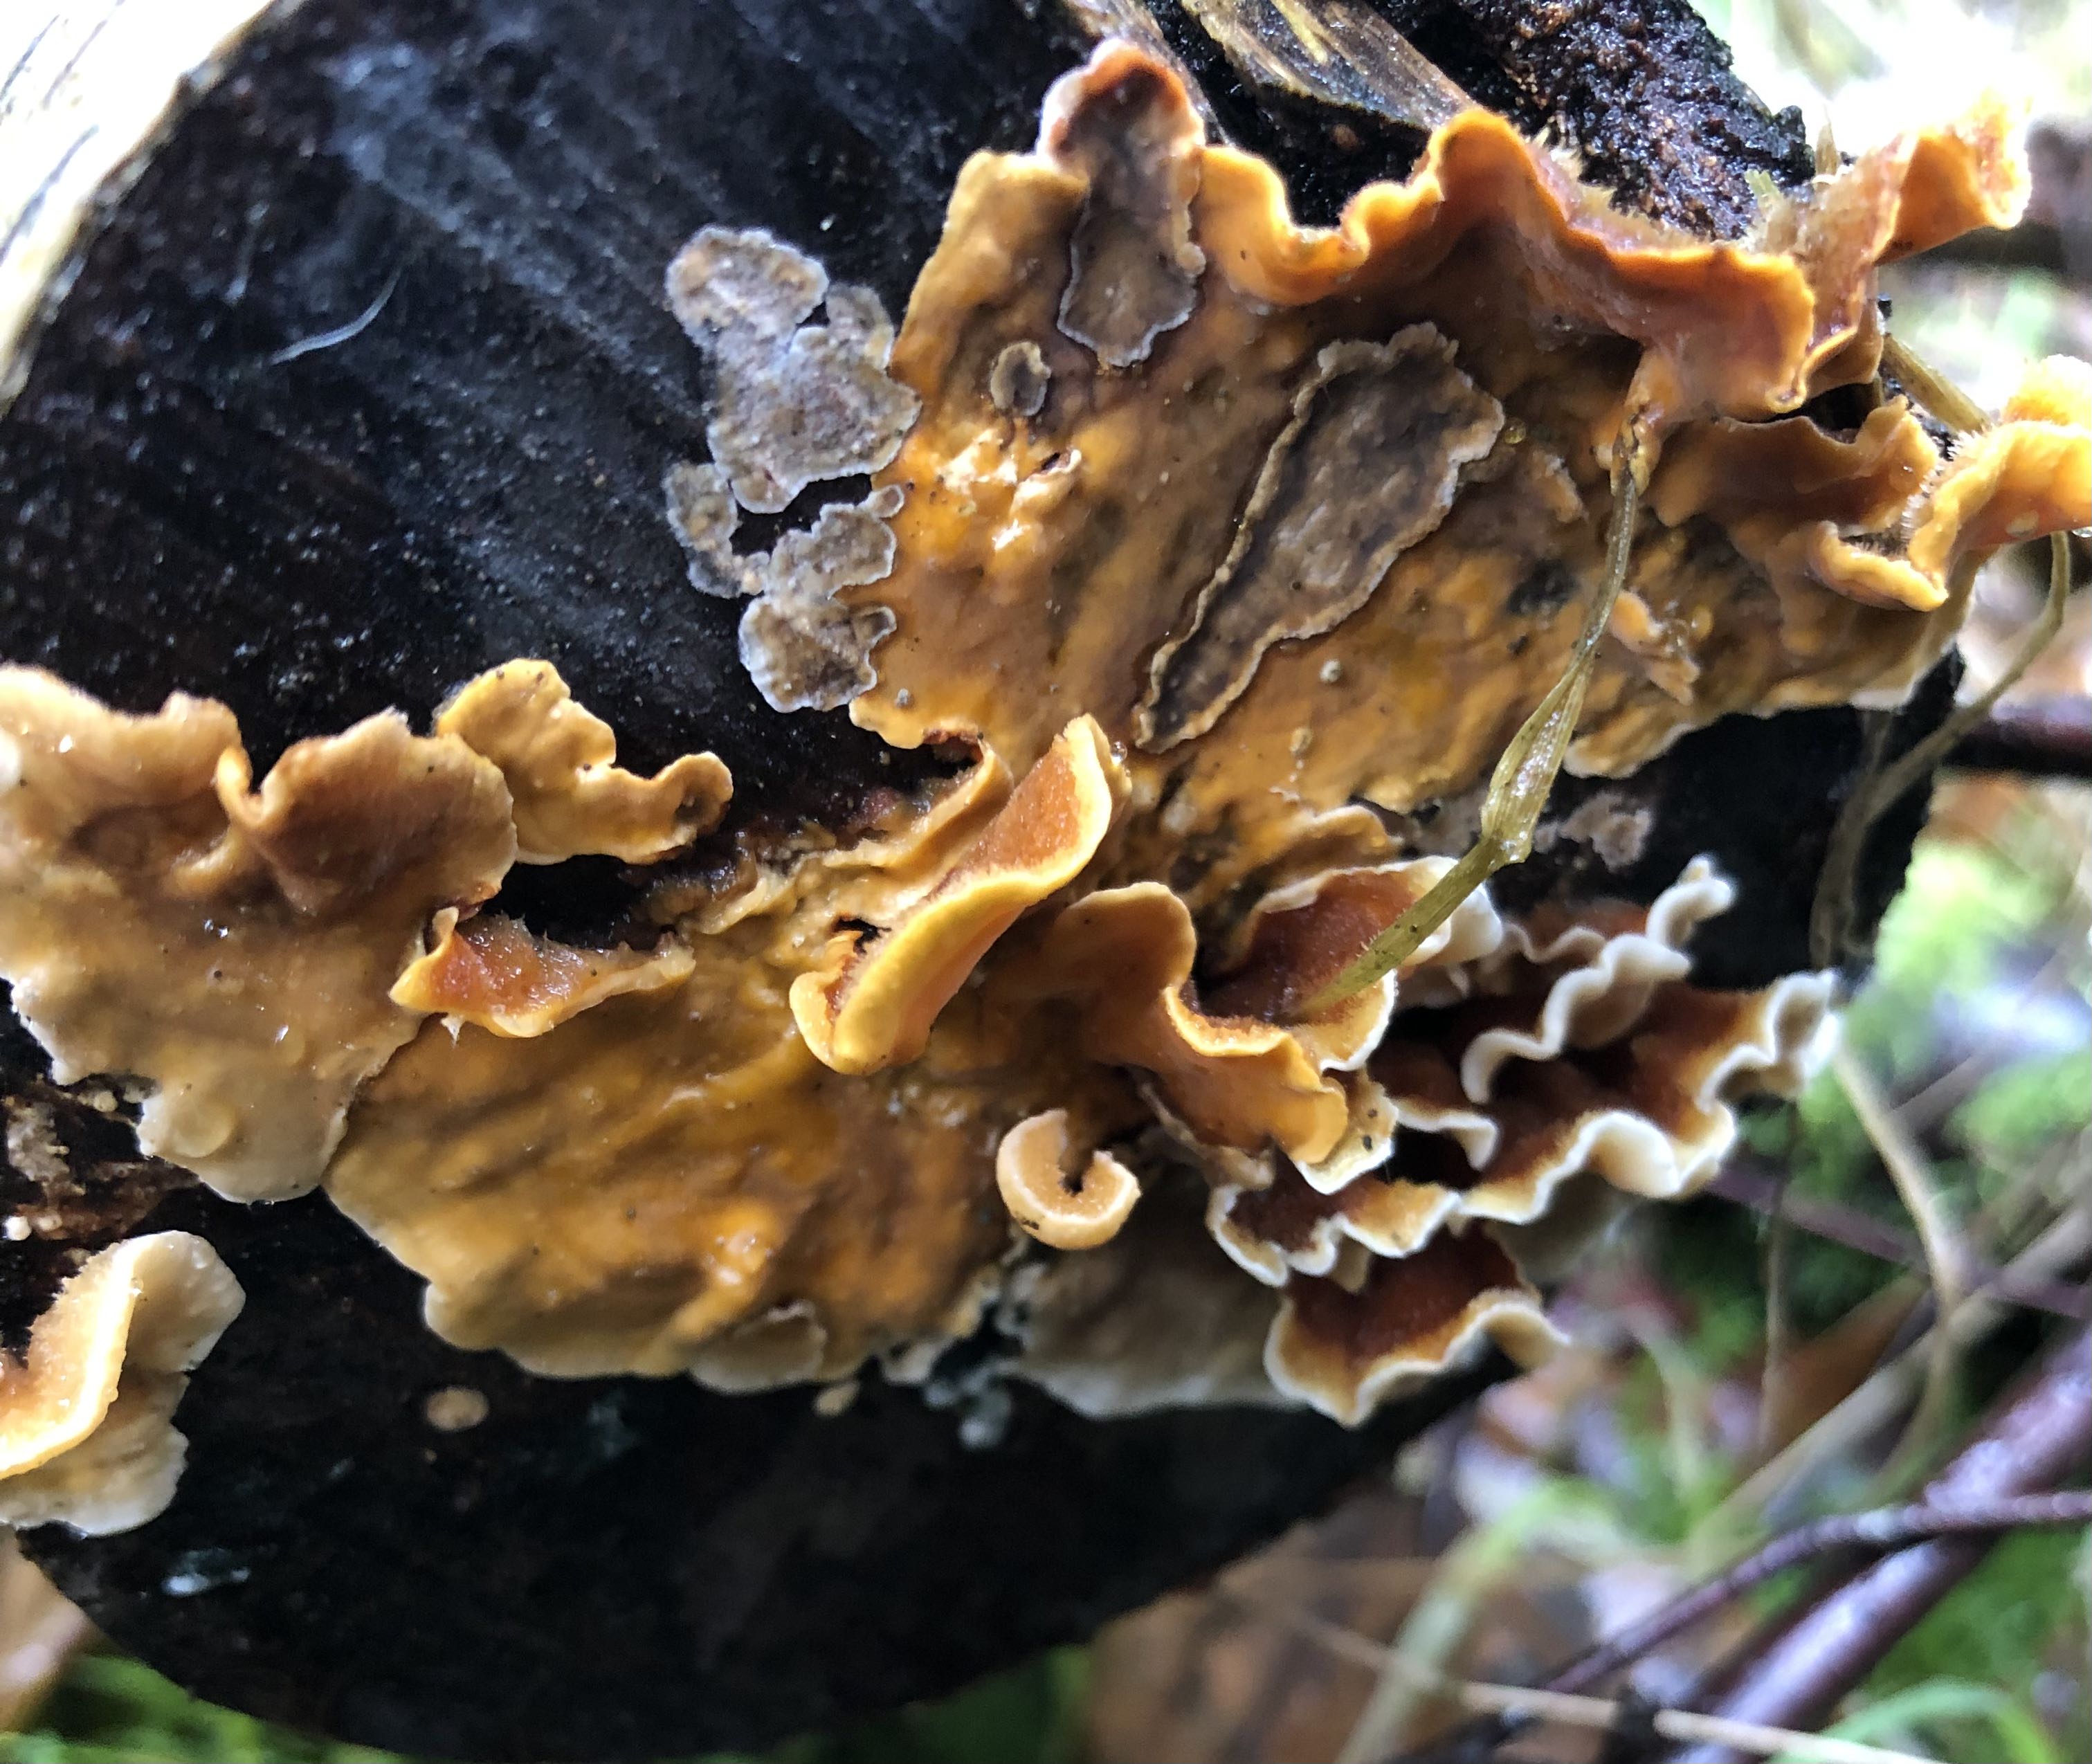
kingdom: Fungi
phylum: Basidiomycota
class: Agaricomycetes
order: Russulales
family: Stereaceae
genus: Stereum
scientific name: Stereum hirsutum
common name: håret lædersvamp
